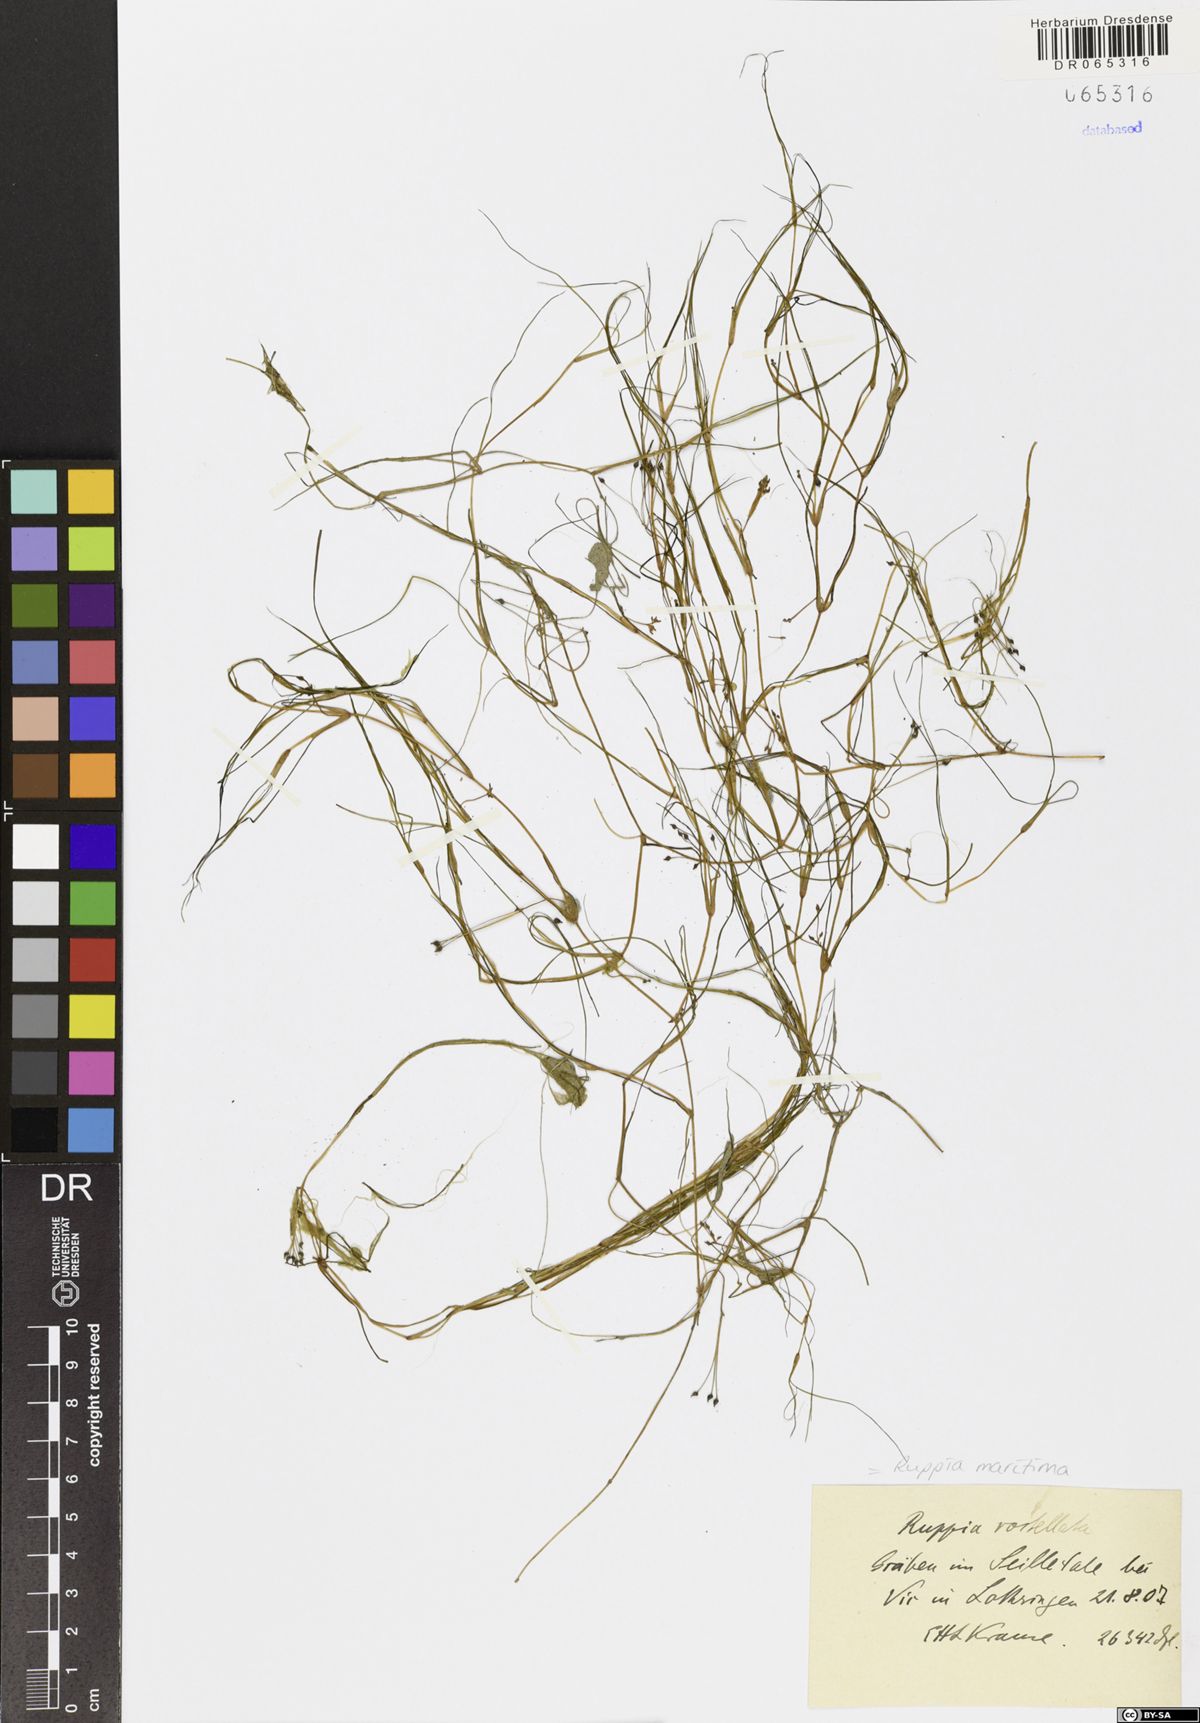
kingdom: Plantae
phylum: Tracheophyta
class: Liliopsida
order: Alismatales
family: Ruppiaceae
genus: Ruppia
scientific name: Ruppia maritima
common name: Beaked tasselweed
